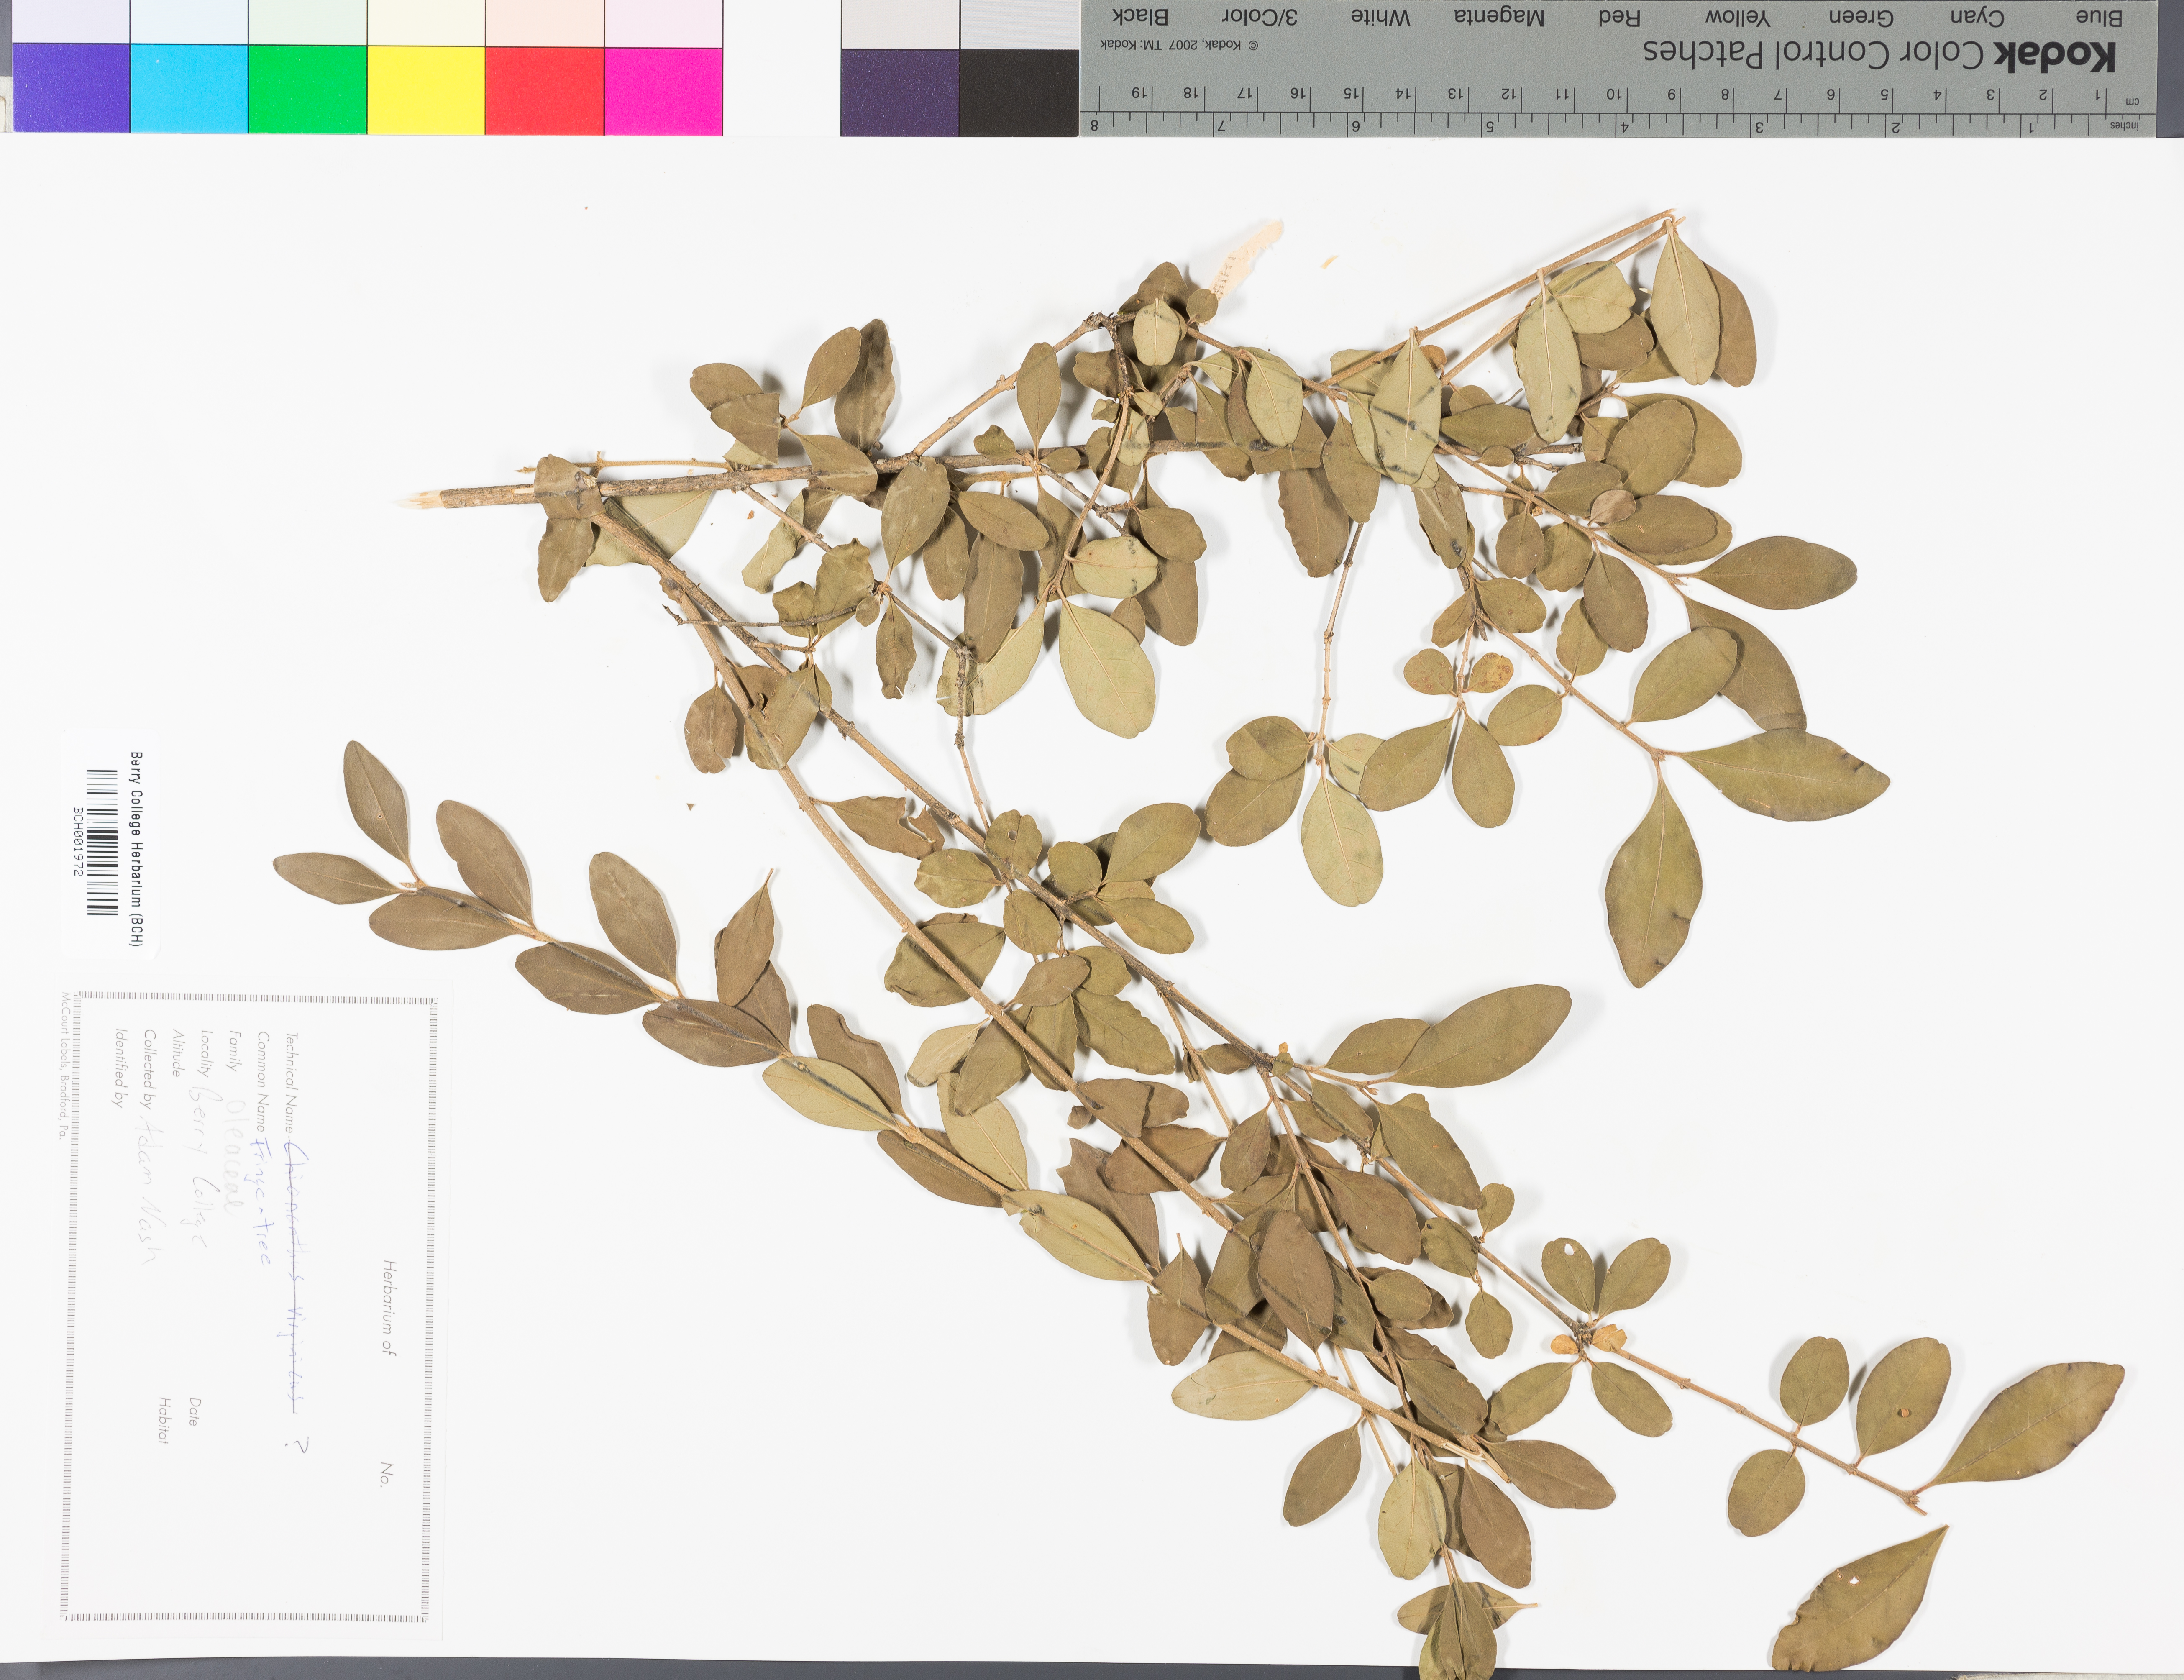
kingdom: Plantae
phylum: Tracheophyta
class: Magnoliopsida
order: Lamiales
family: Oleaceae
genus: Chionanthus
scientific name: Chionanthus virginicus
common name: American fringetree
